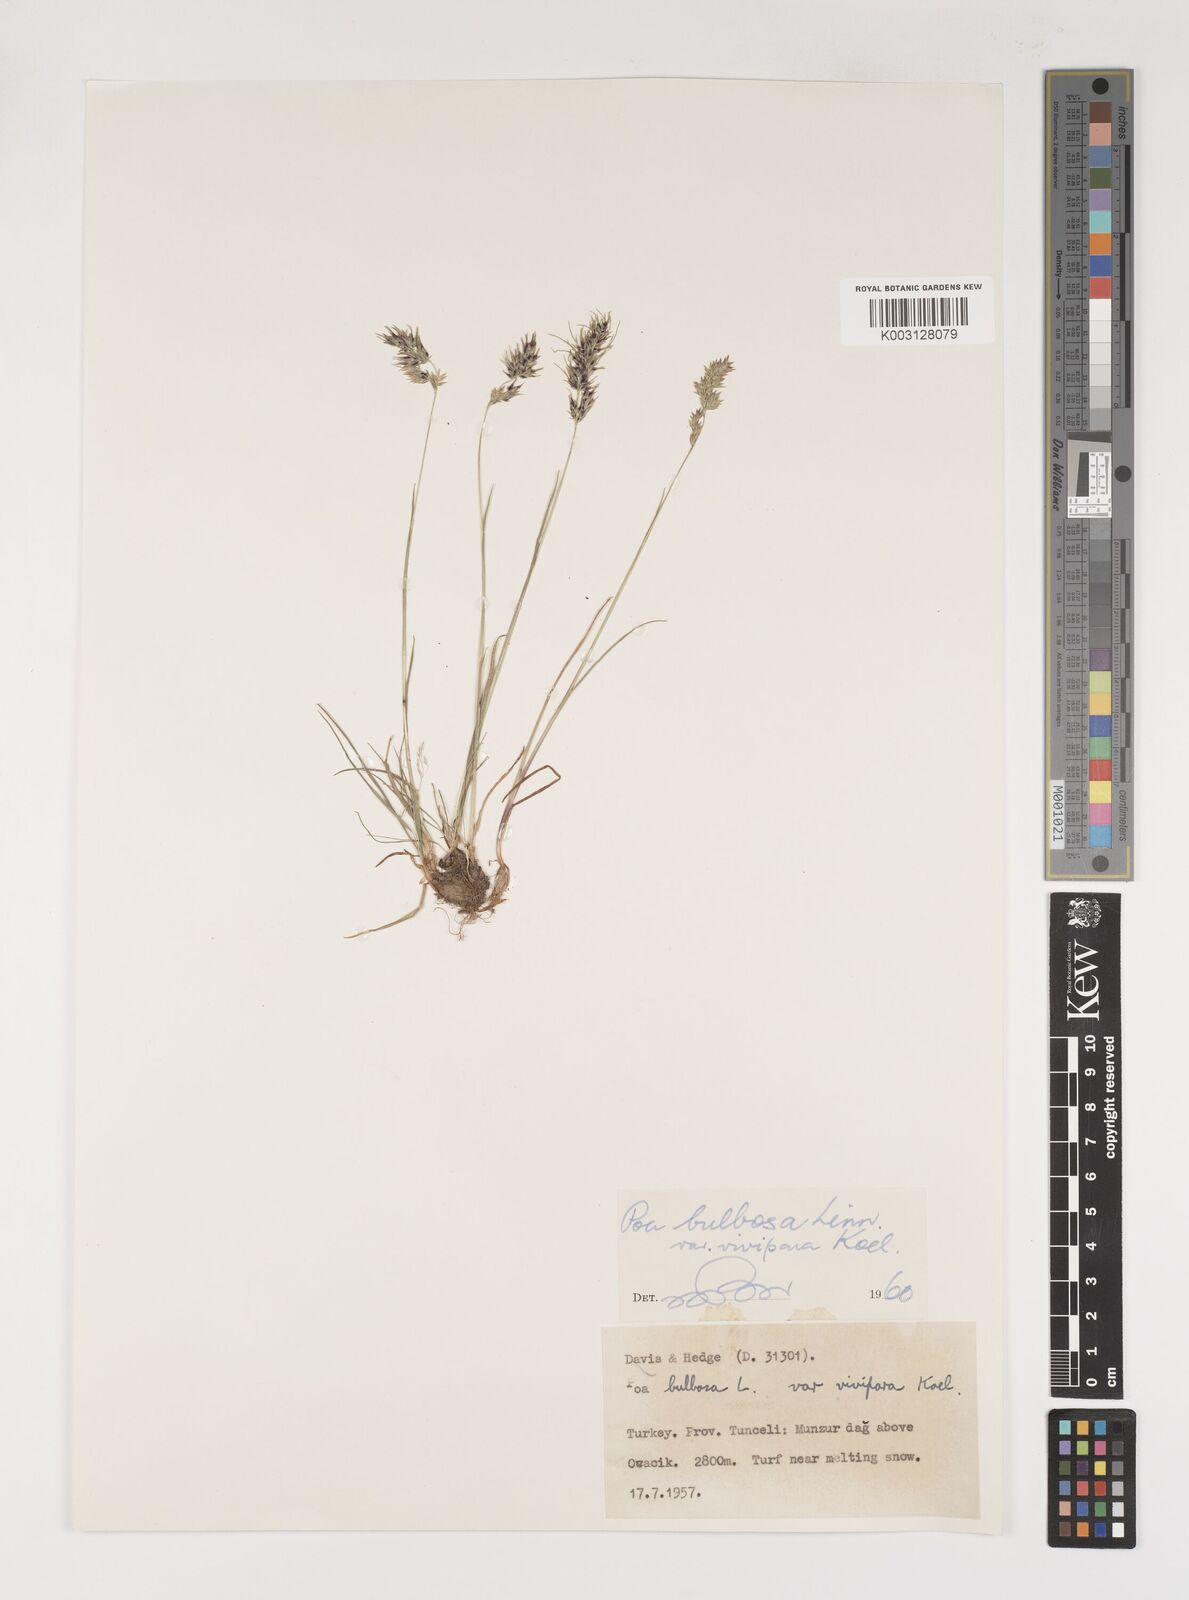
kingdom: Plantae
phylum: Tracheophyta
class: Liliopsida
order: Poales
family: Poaceae
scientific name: Poaceae
